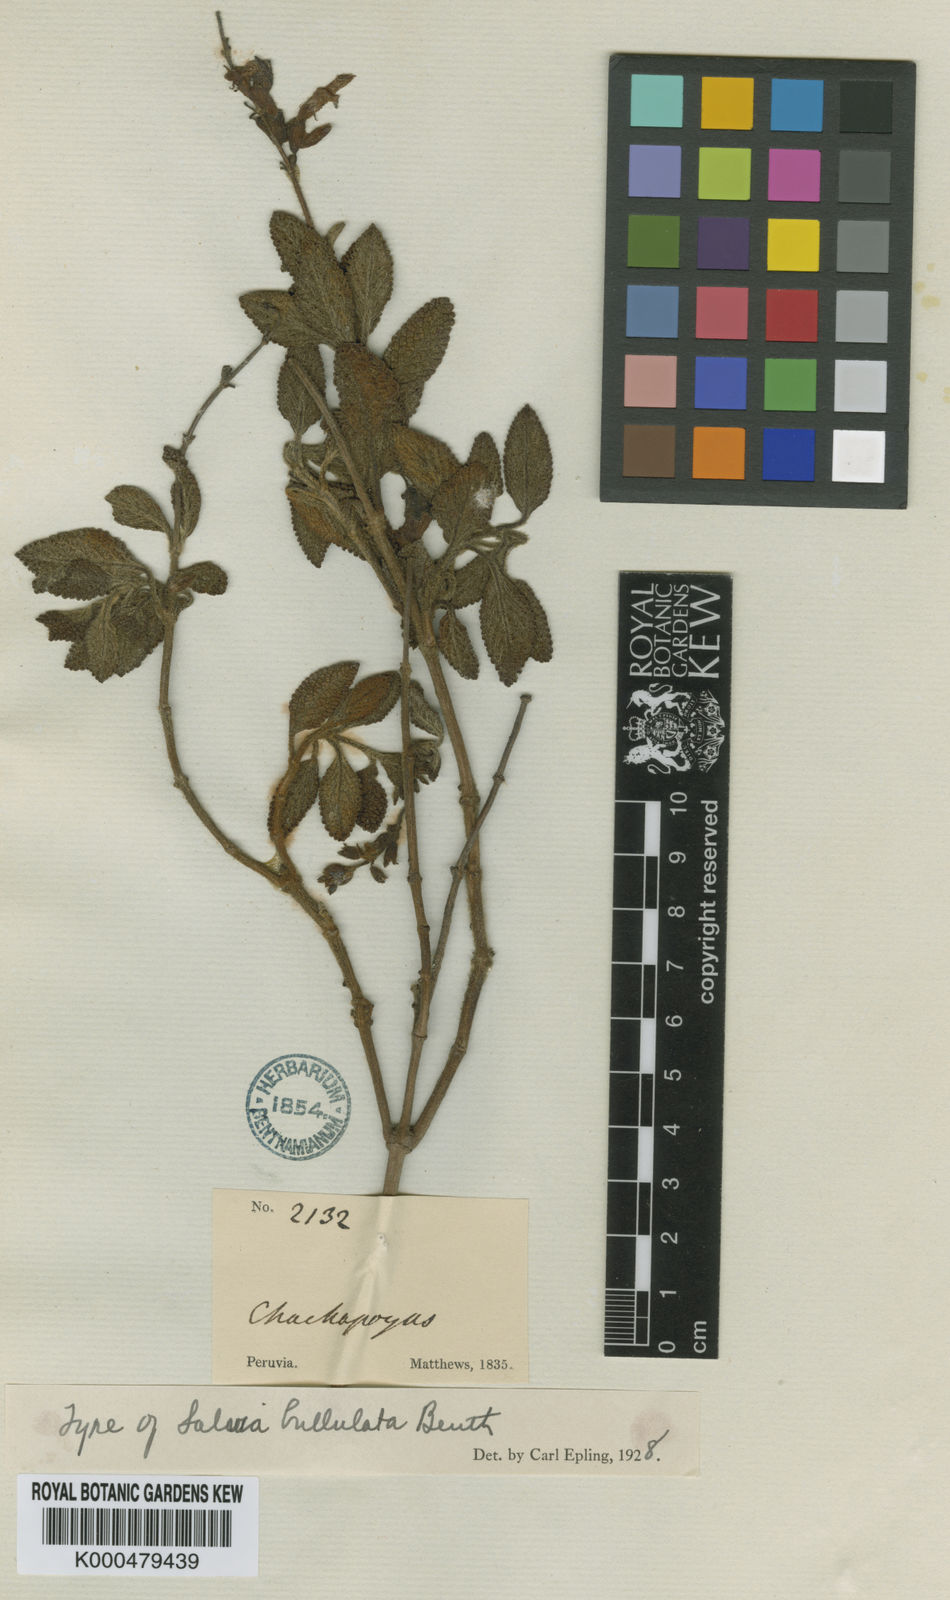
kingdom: Plantae
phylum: Tracheophyta
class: Magnoliopsida
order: Lamiales
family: Lamiaceae
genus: Salvia
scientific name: Salvia bullulata
